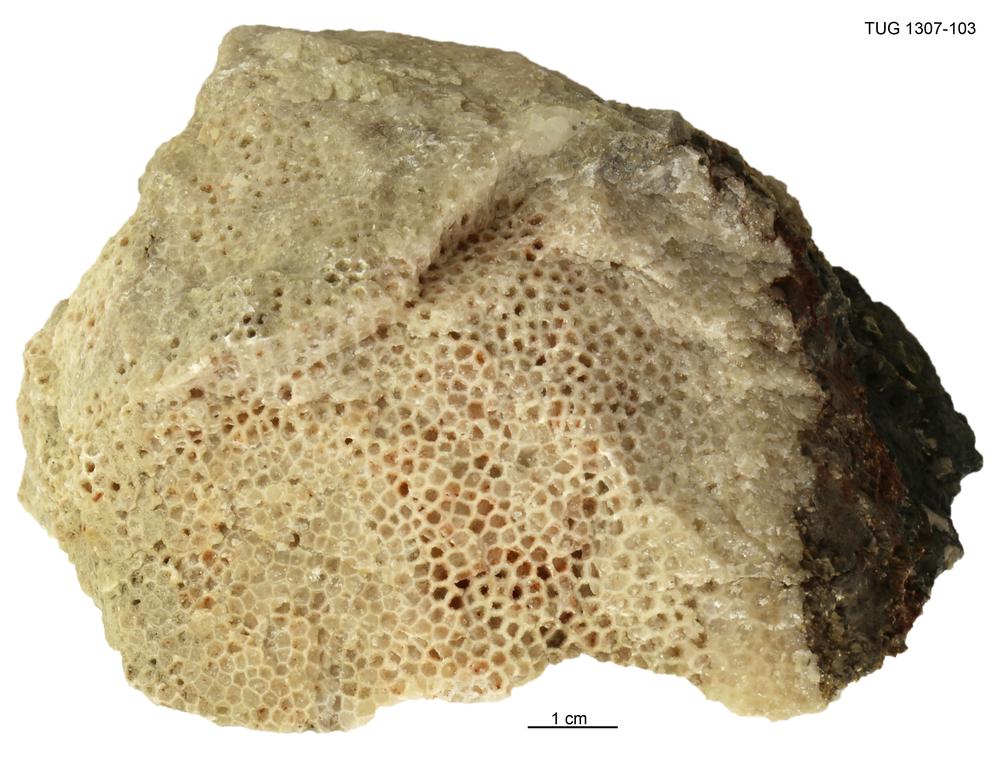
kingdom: Animalia
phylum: Cnidaria
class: Anthozoa
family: Favositidae
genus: Saffordophyllum
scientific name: Saffordophyllum
